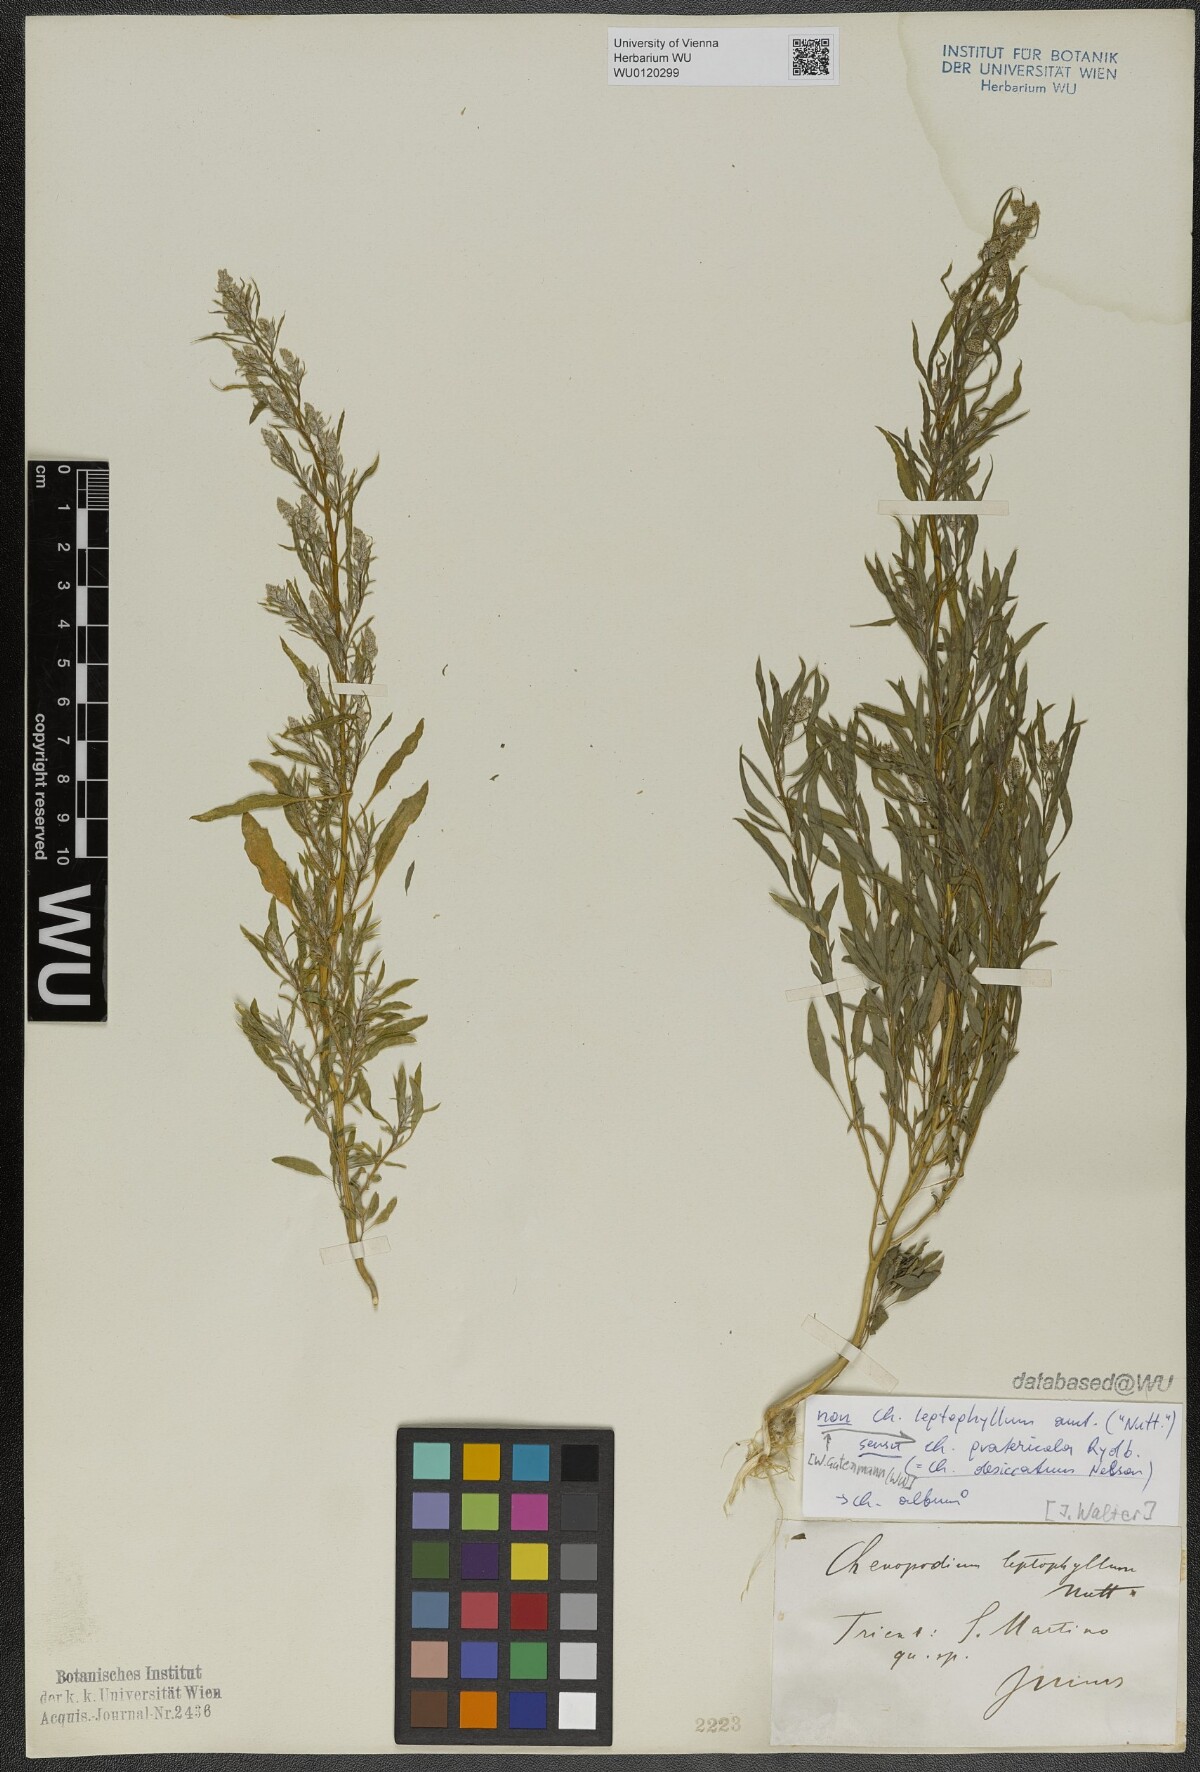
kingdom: Plantae
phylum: Tracheophyta
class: Magnoliopsida
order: Caryophyllales
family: Amaranthaceae
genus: Chenopodium
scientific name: Chenopodium pratericola
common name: Desert goosefoot
